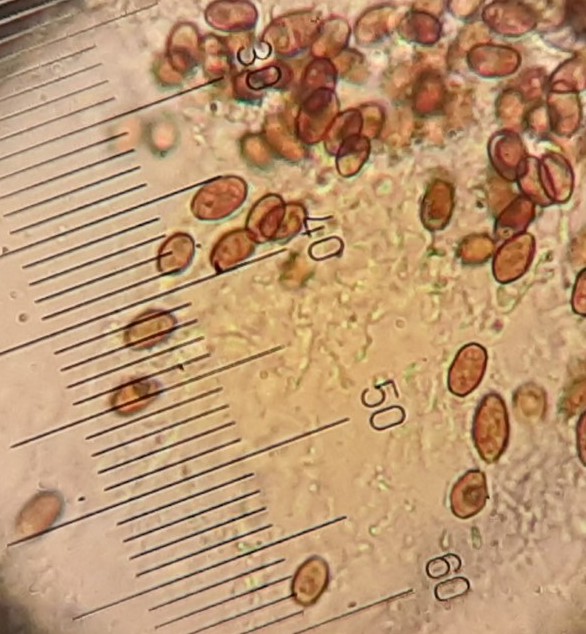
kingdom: Fungi
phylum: Basidiomycota
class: Agaricomycetes
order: Agaricales
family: Psathyrellaceae
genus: Homophron
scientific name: Homophron cernuum
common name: hvidlig mørkhat
